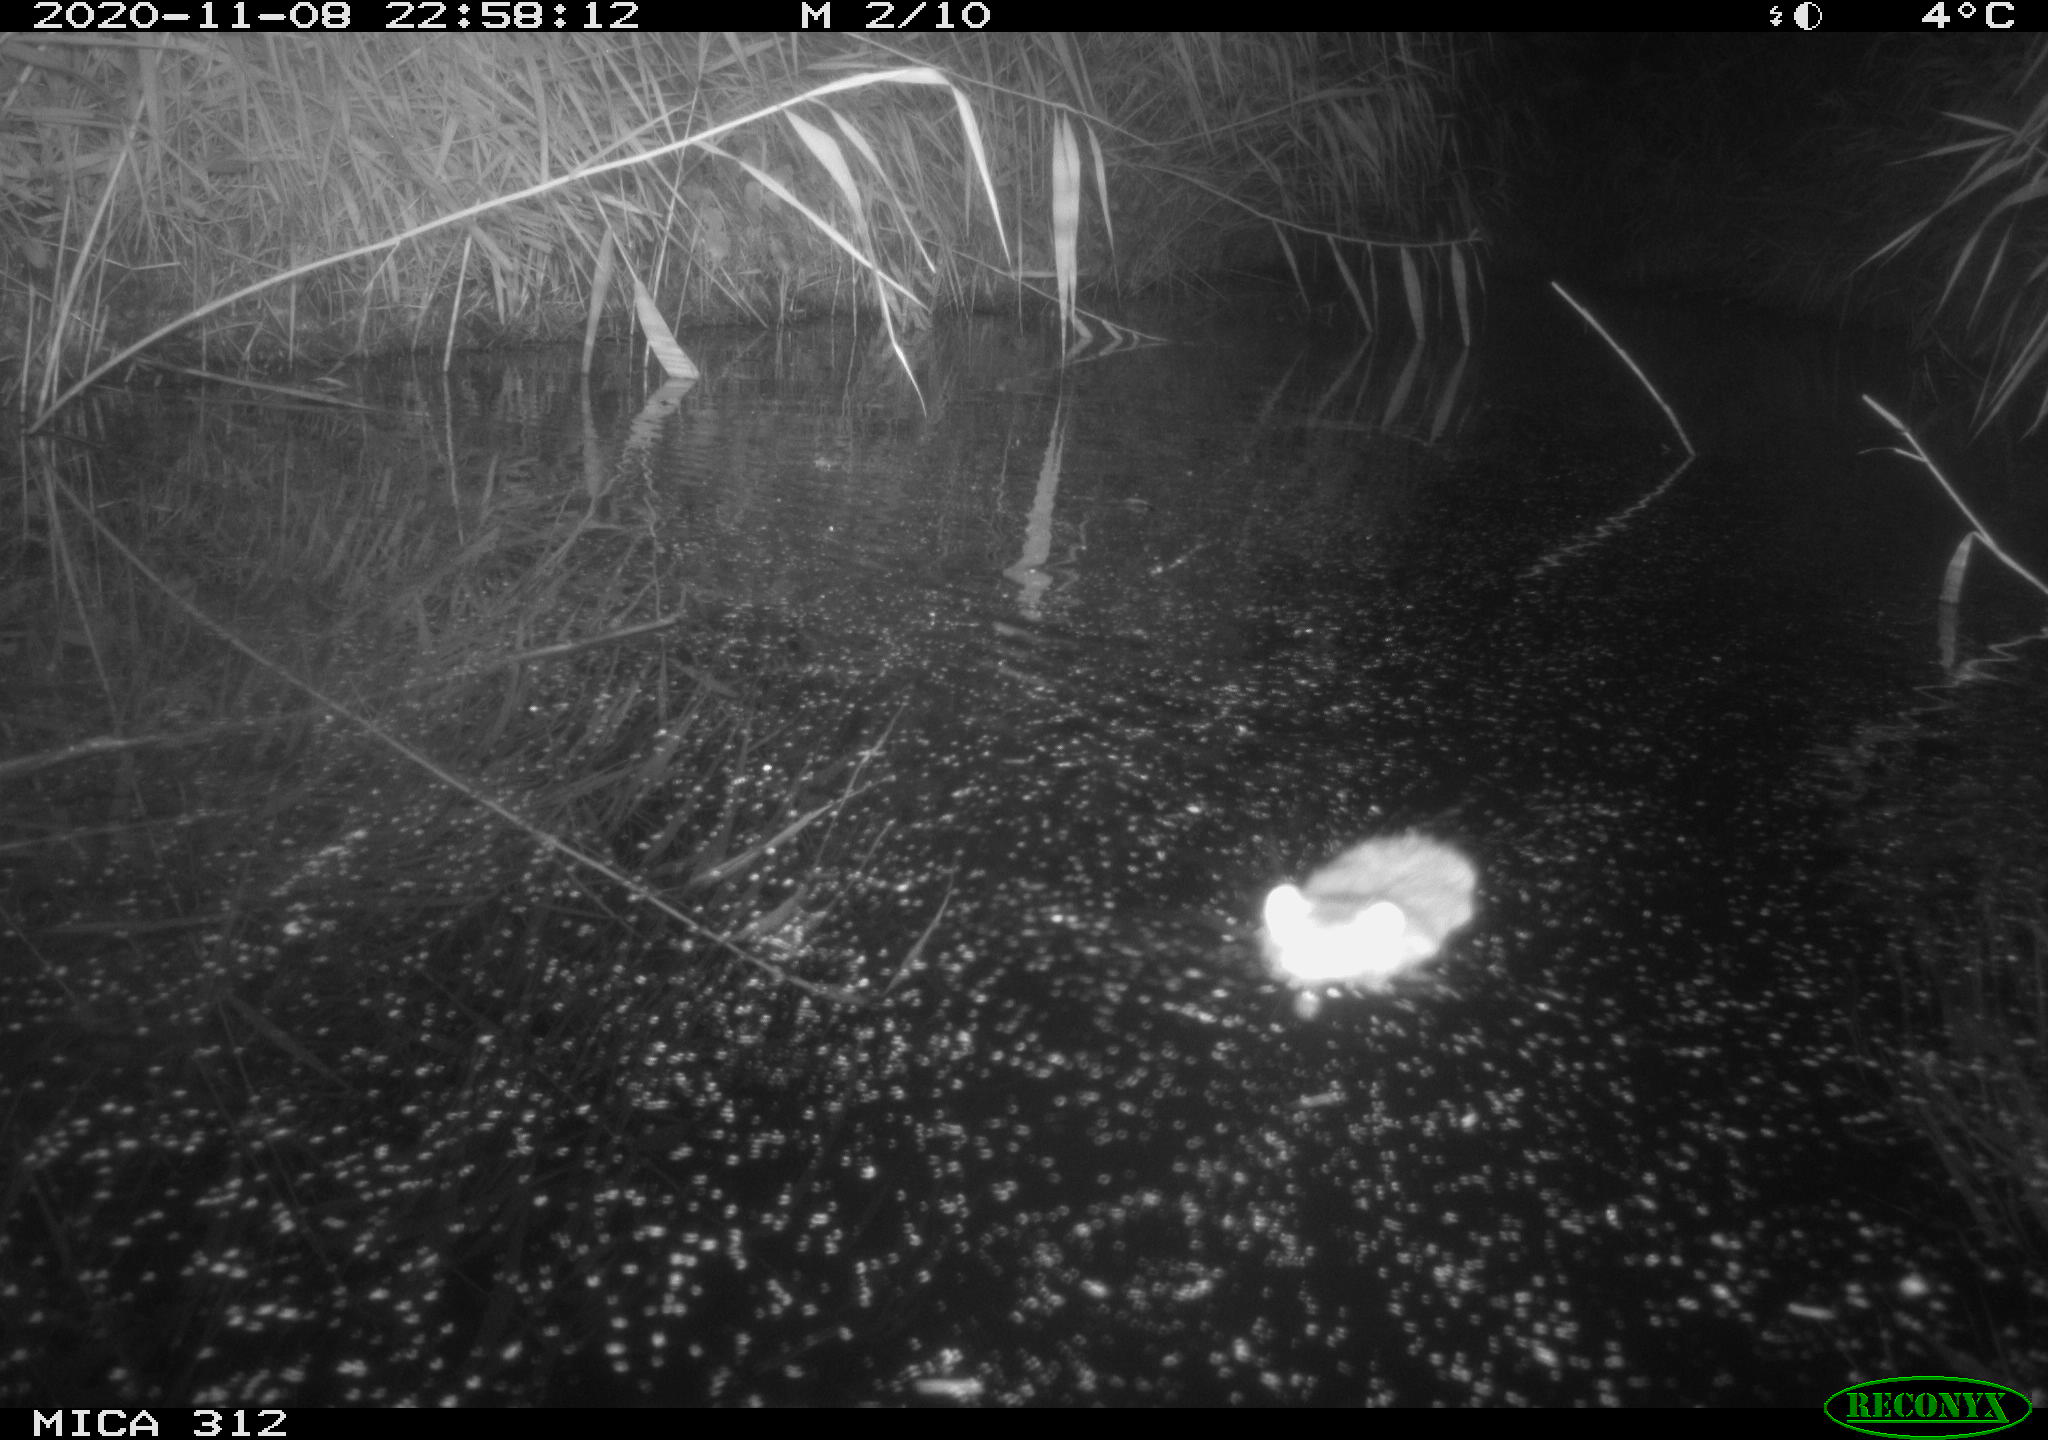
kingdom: Animalia
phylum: Chordata
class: Mammalia
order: Rodentia
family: Cricetidae
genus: Ondatra
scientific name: Ondatra zibethicus
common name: Muskrat
